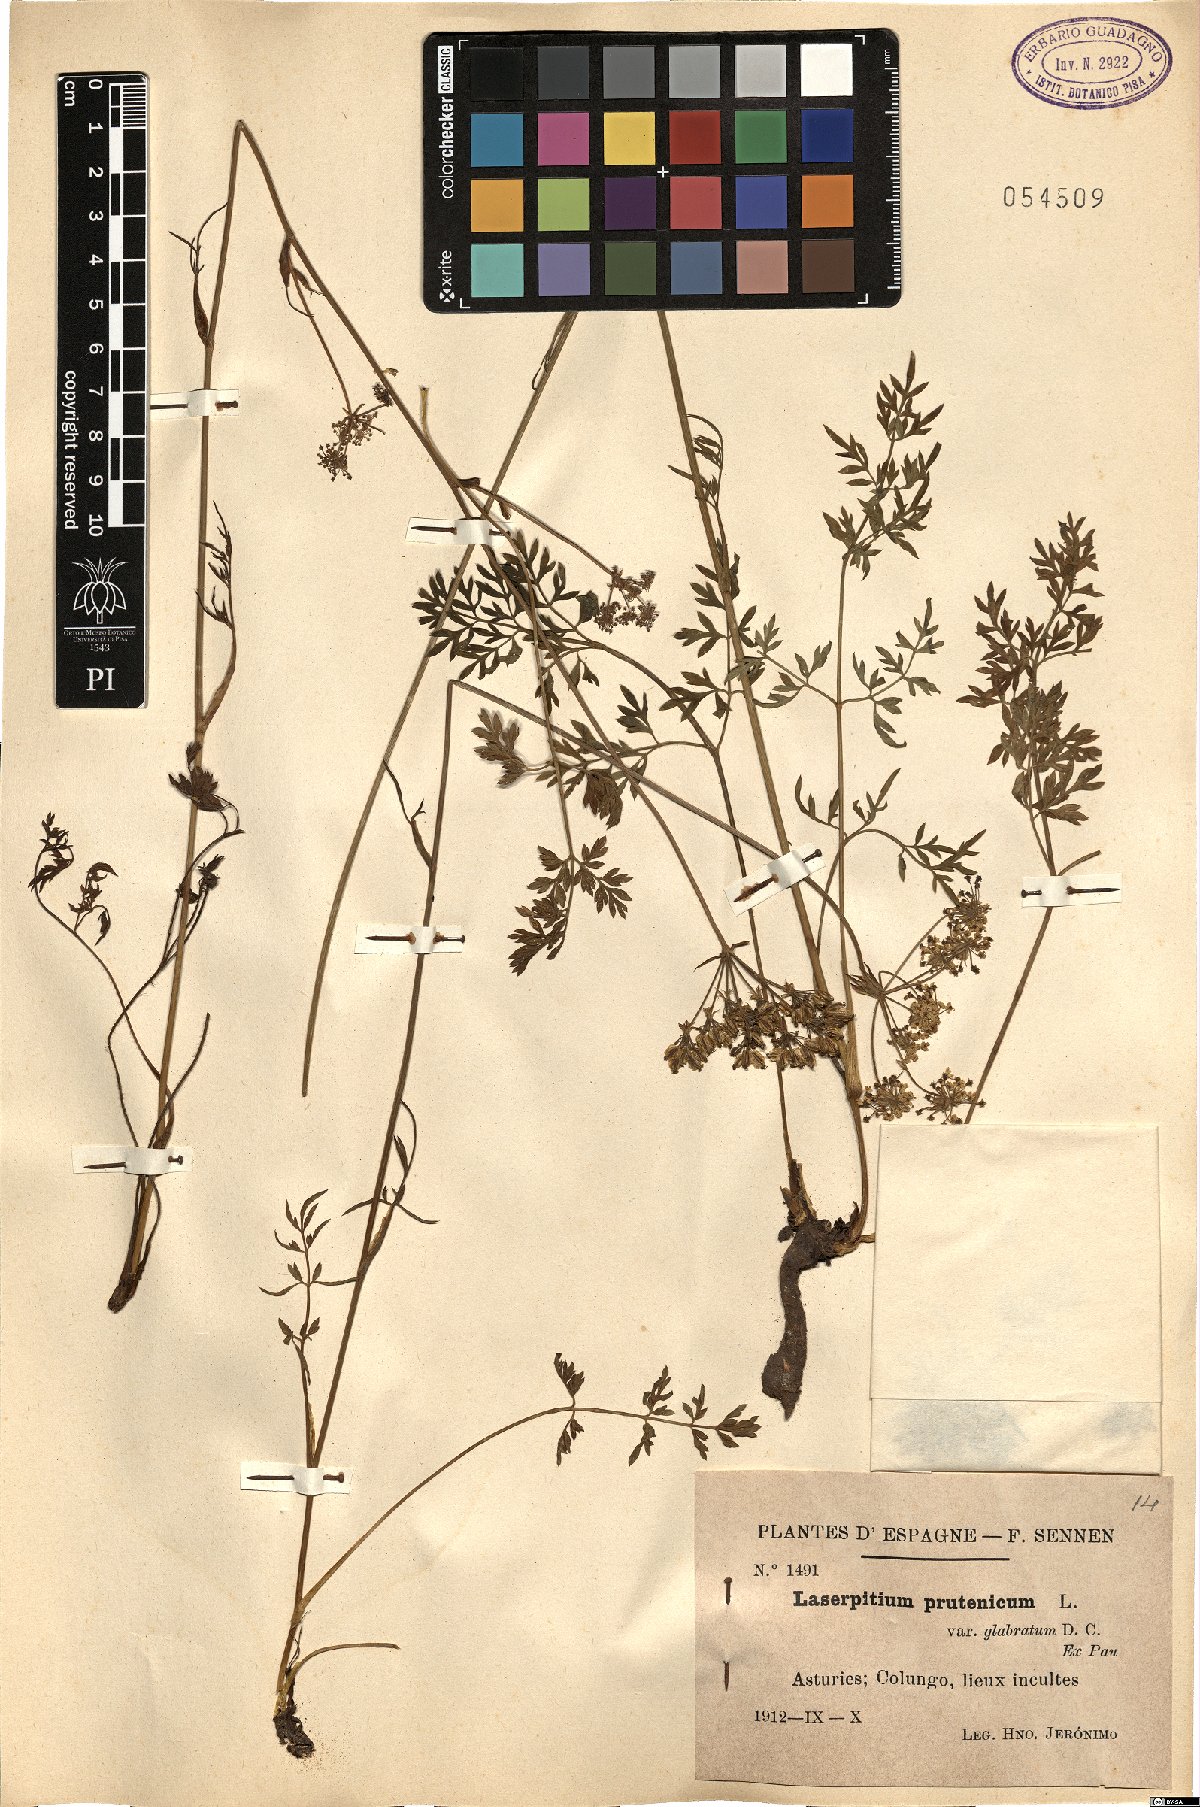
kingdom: Plantae
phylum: Tracheophyta
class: Magnoliopsida
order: Apiales
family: Apiaceae
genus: Silphiodaucus
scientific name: Silphiodaucus prutenicus
